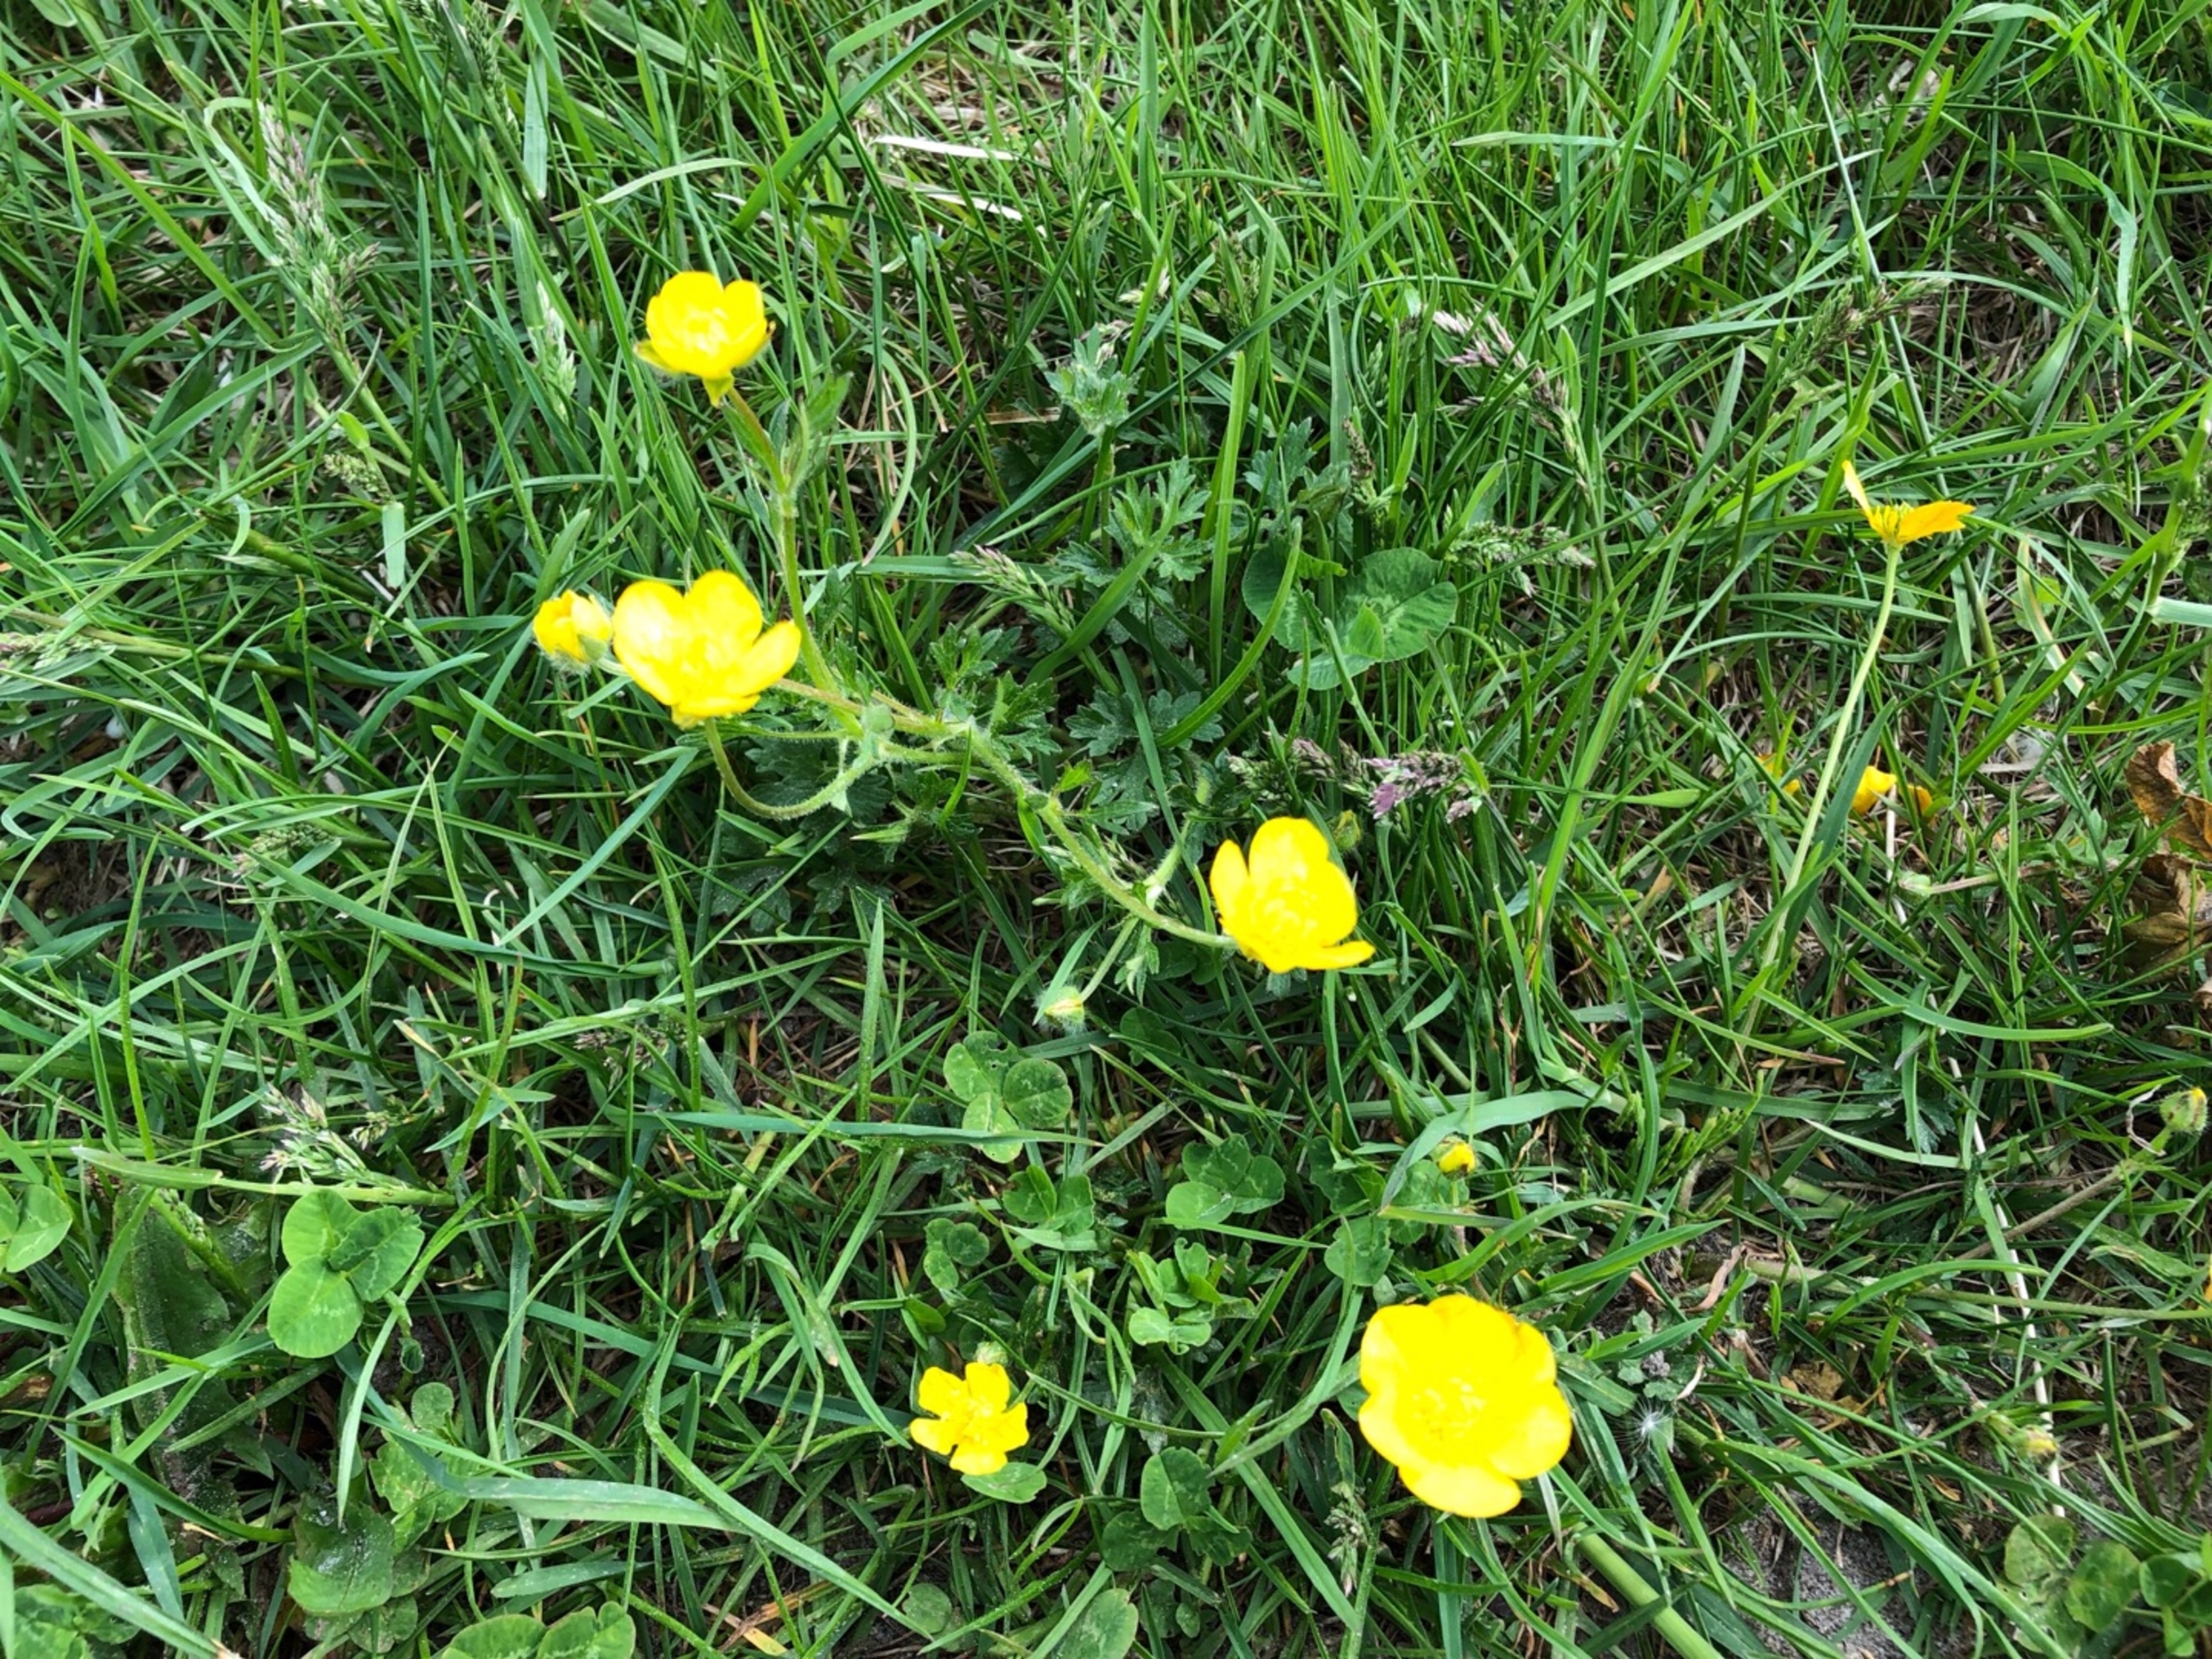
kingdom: Plantae
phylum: Tracheophyta
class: Magnoliopsida
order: Ranunculales
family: Ranunculaceae
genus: Ranunculus
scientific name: Ranunculus bulbosus
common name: Knold-ranunkel
